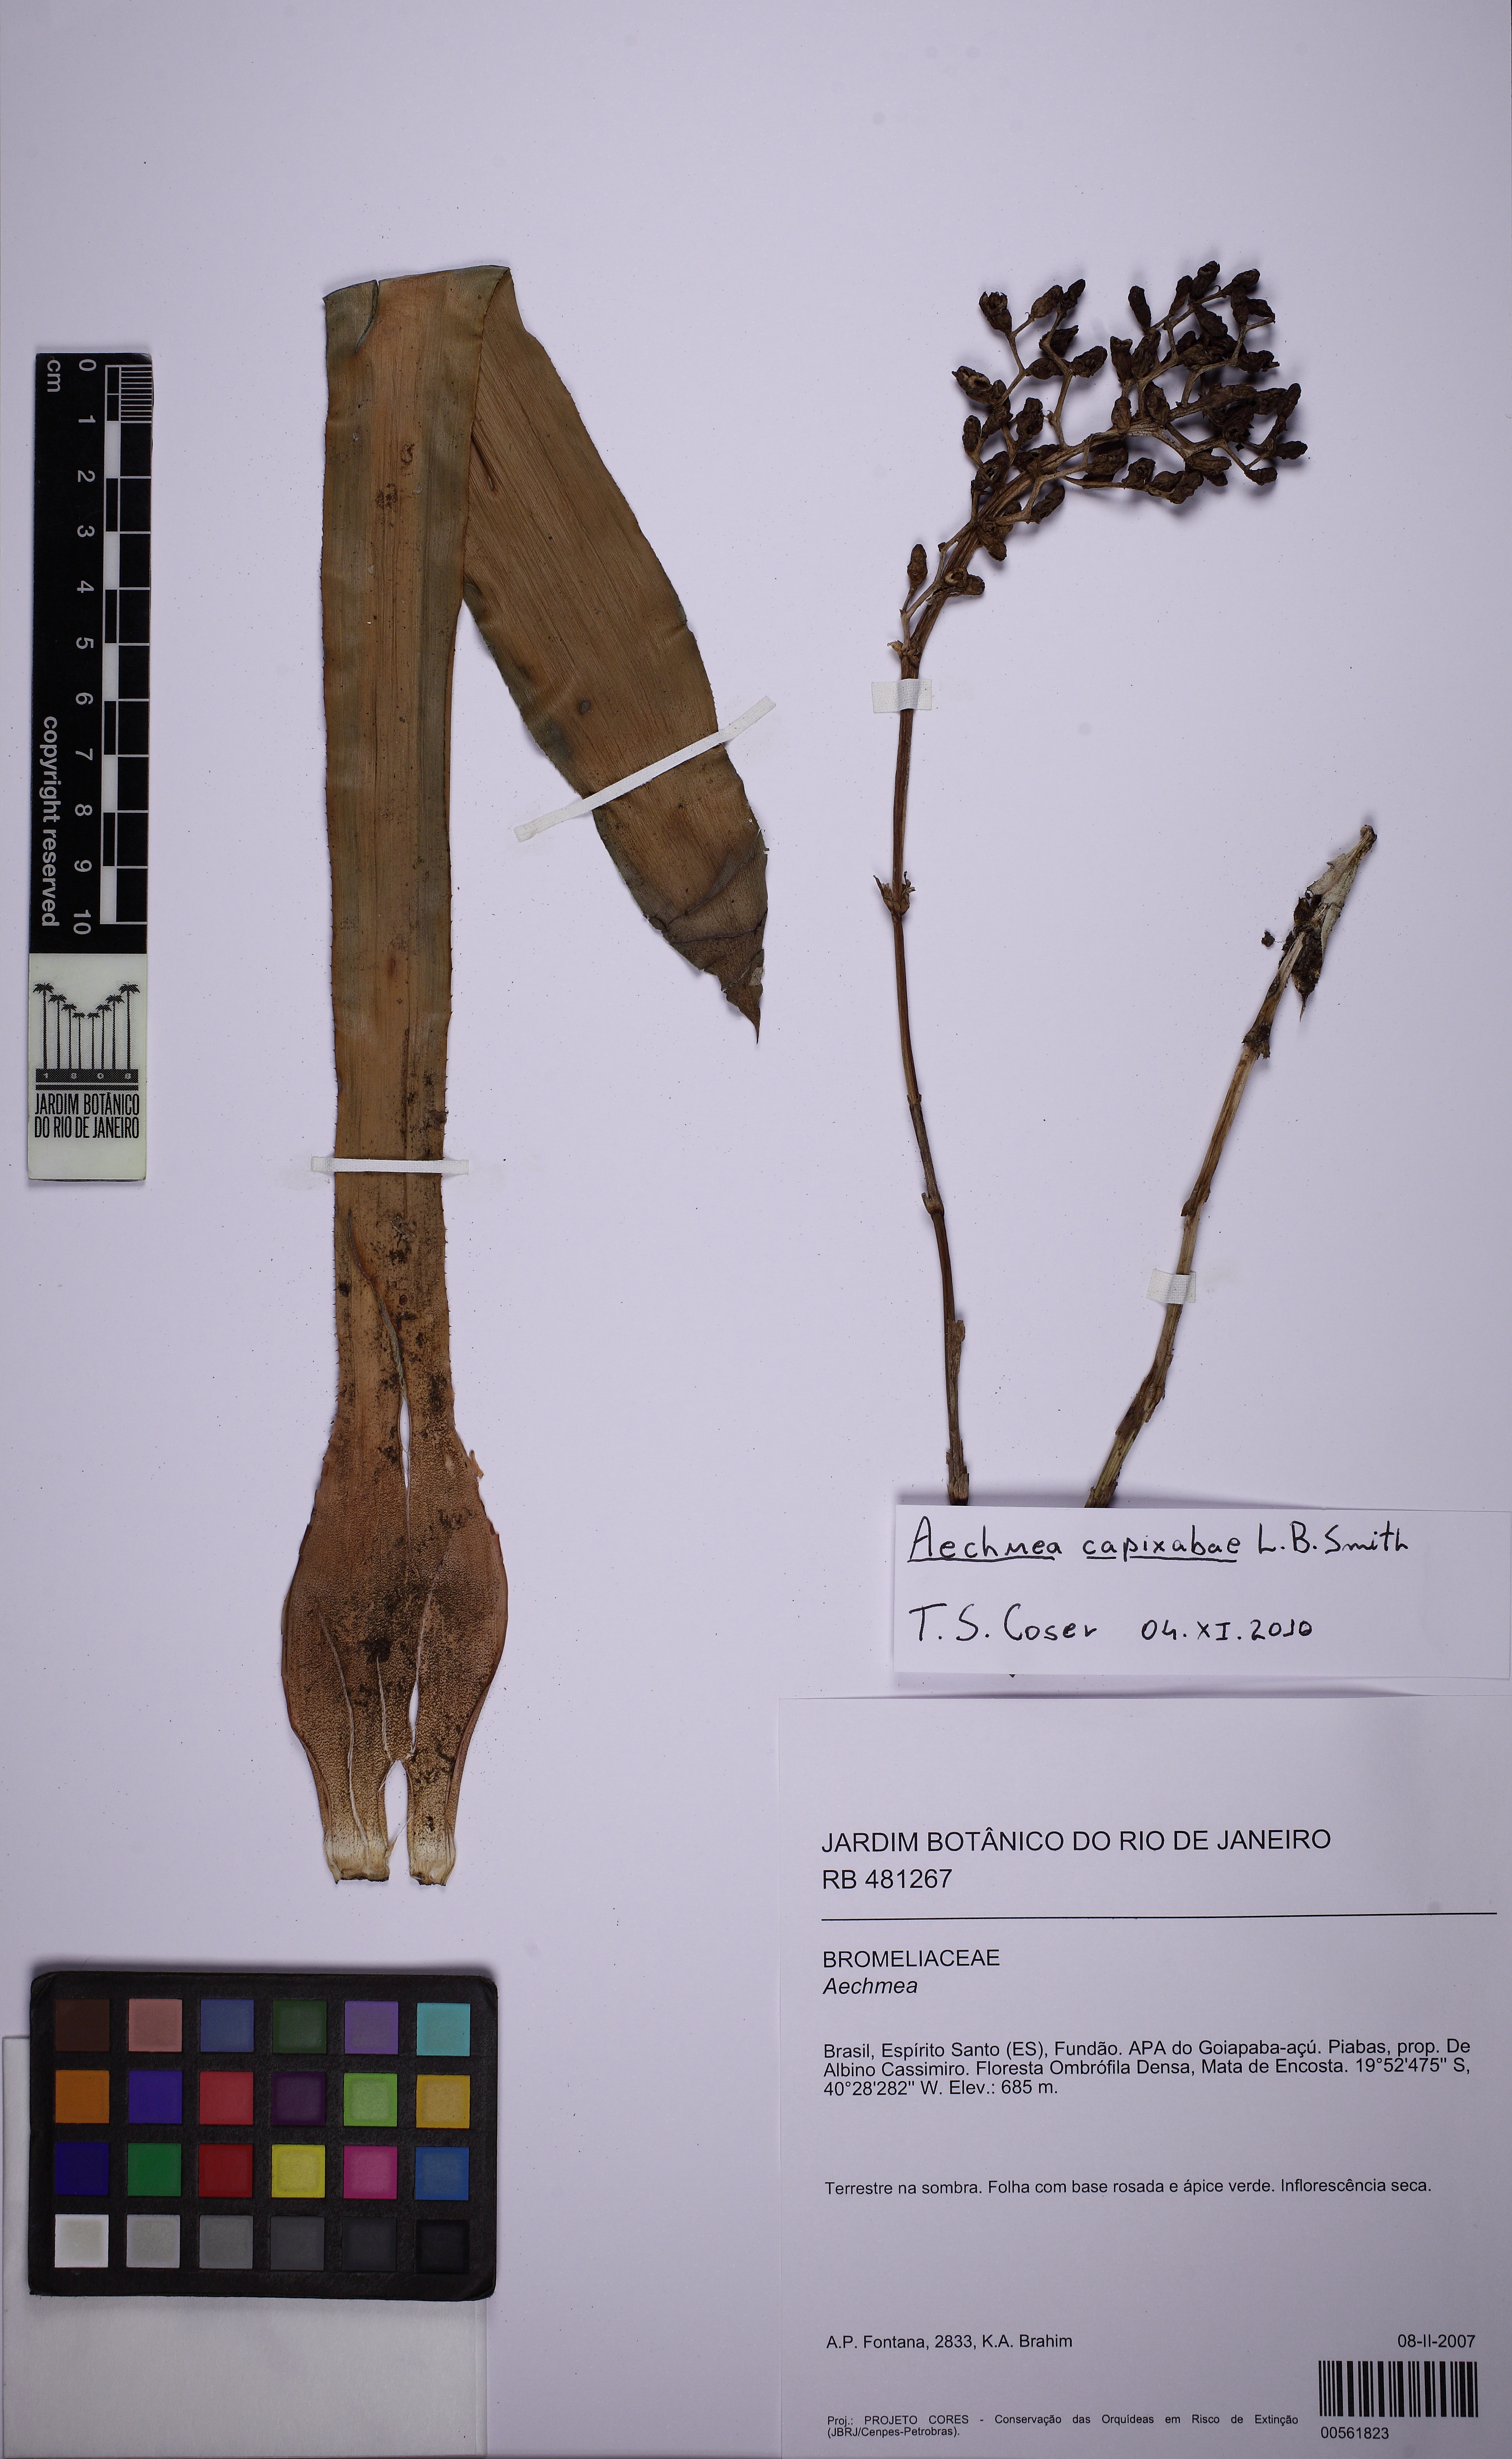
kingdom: Plantae
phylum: Tracheophyta
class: Liliopsida
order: Poales
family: Bromeliaceae
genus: Aechmea
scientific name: Aechmea capixabae
